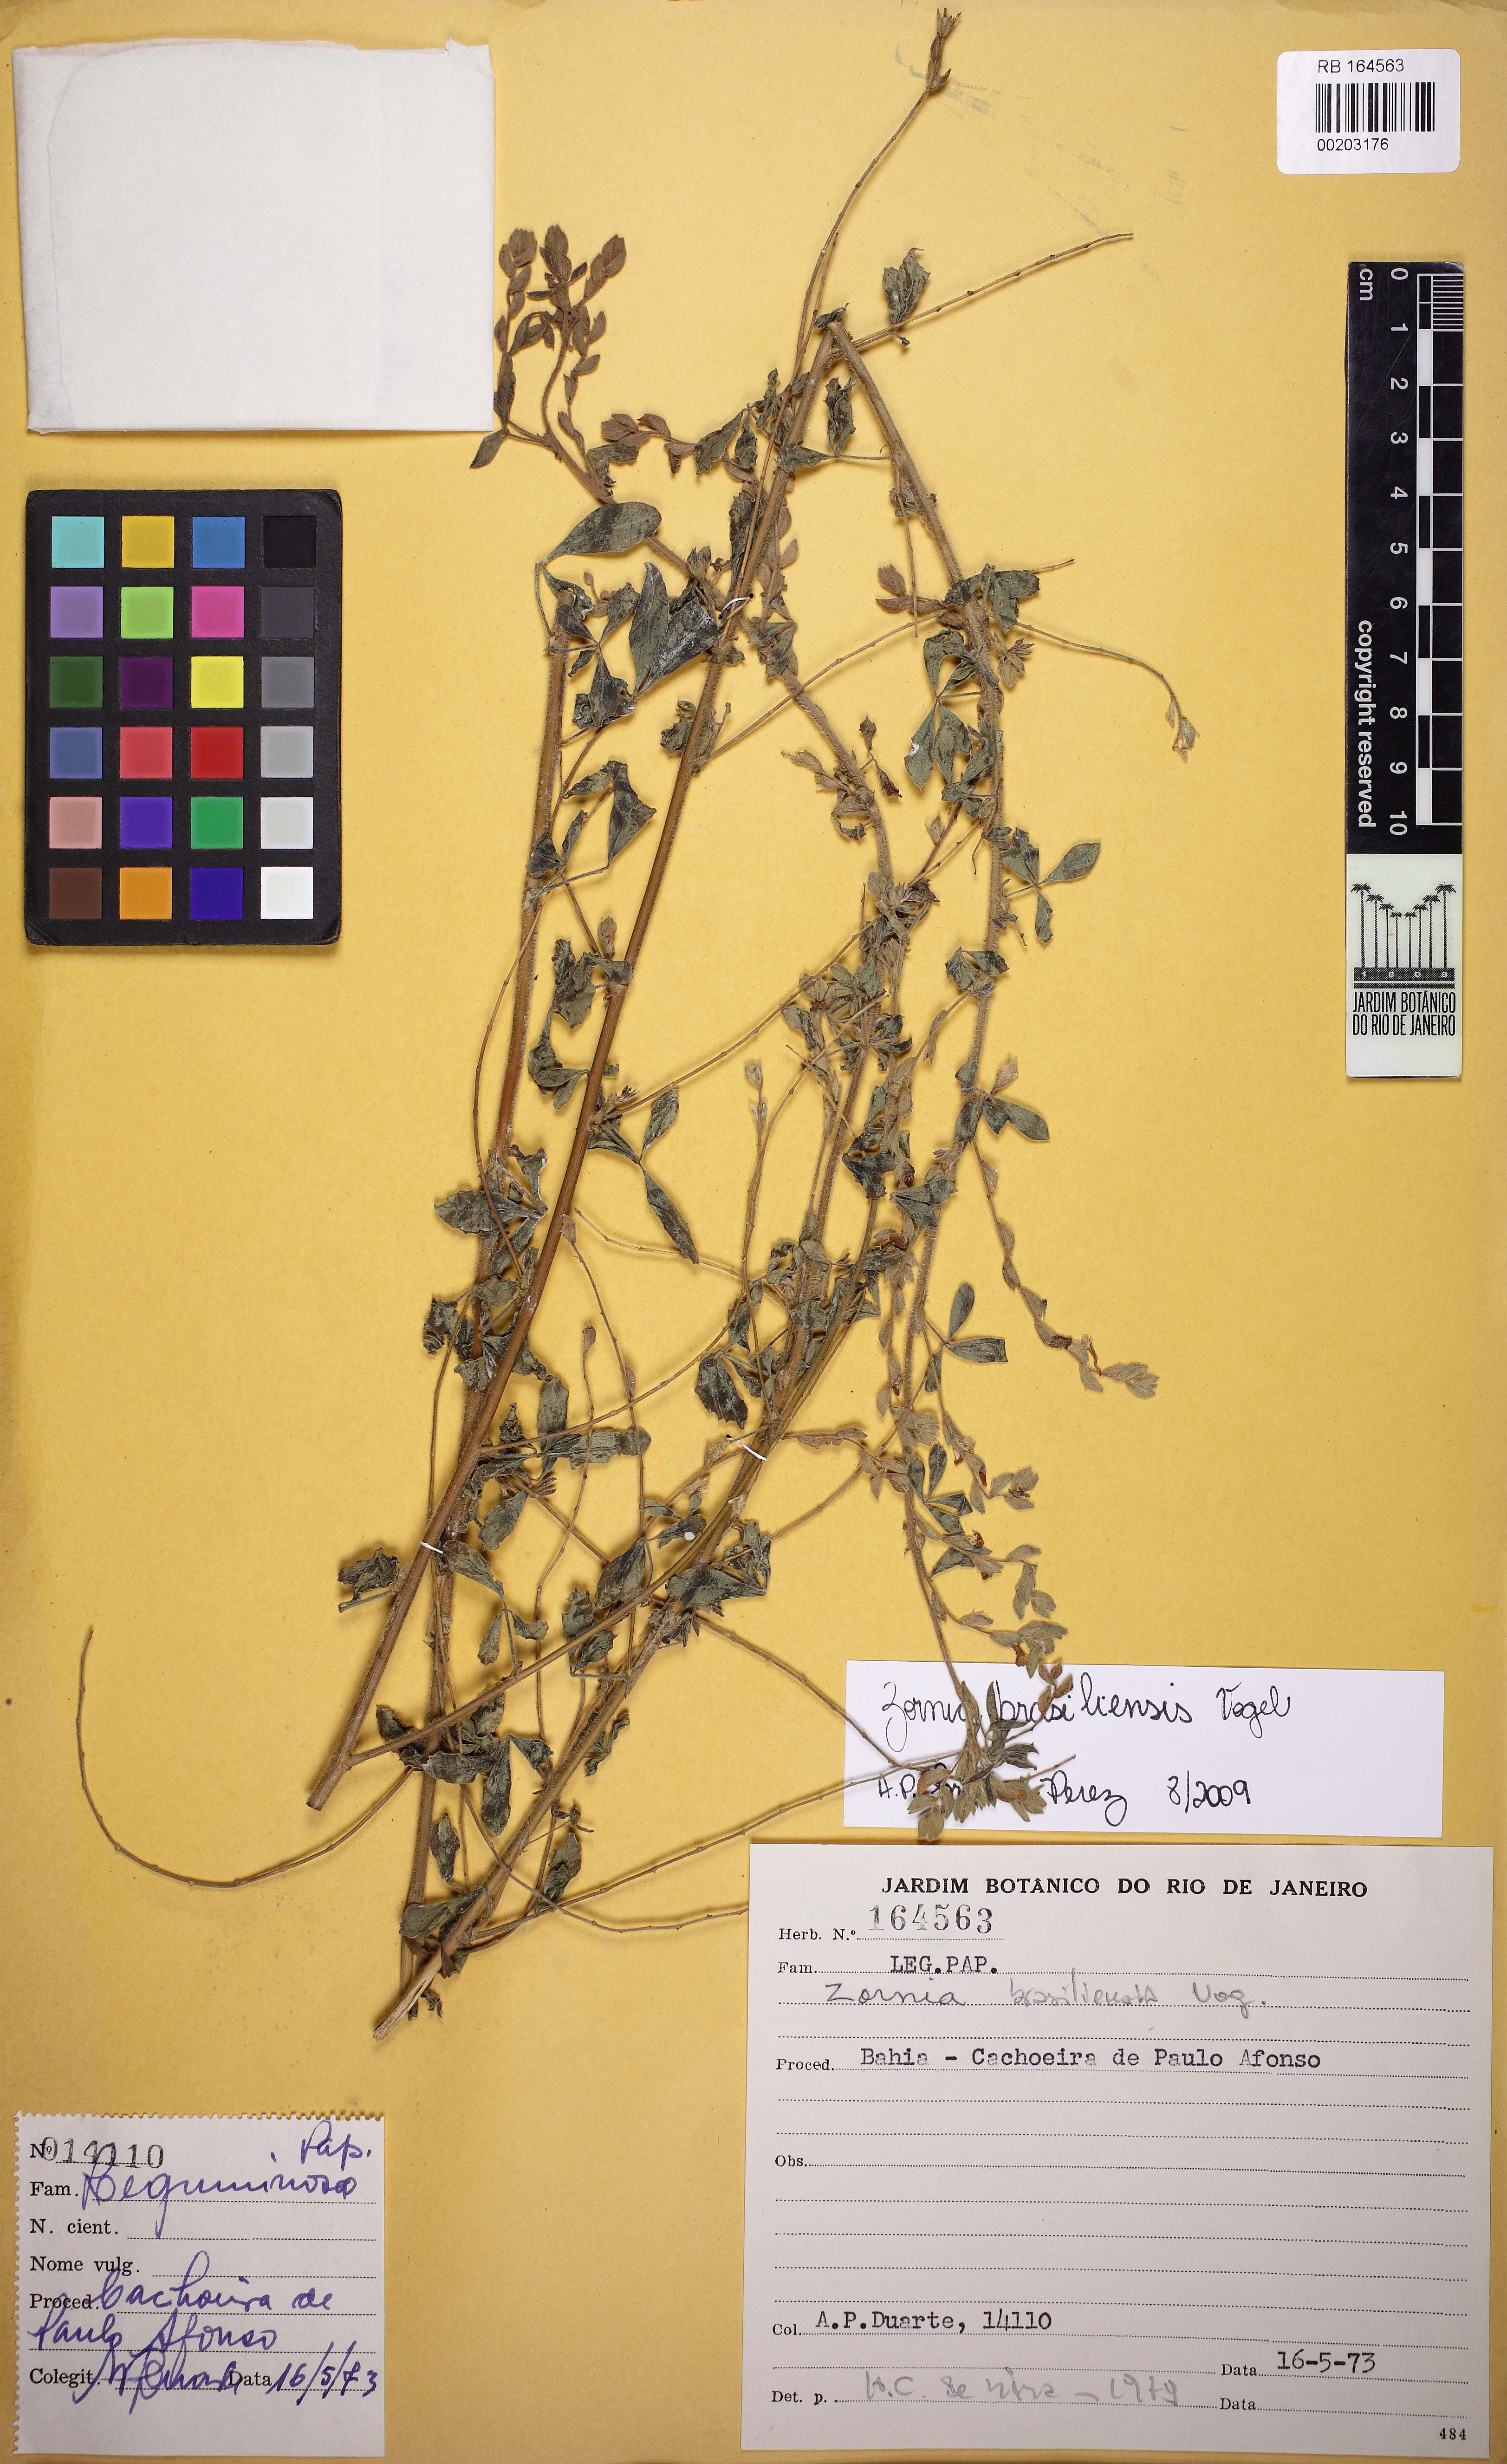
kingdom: Plantae
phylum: Tracheophyta
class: Magnoliopsida
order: Fabales
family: Fabaceae
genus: Zornia
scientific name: Zornia brasiliensis
